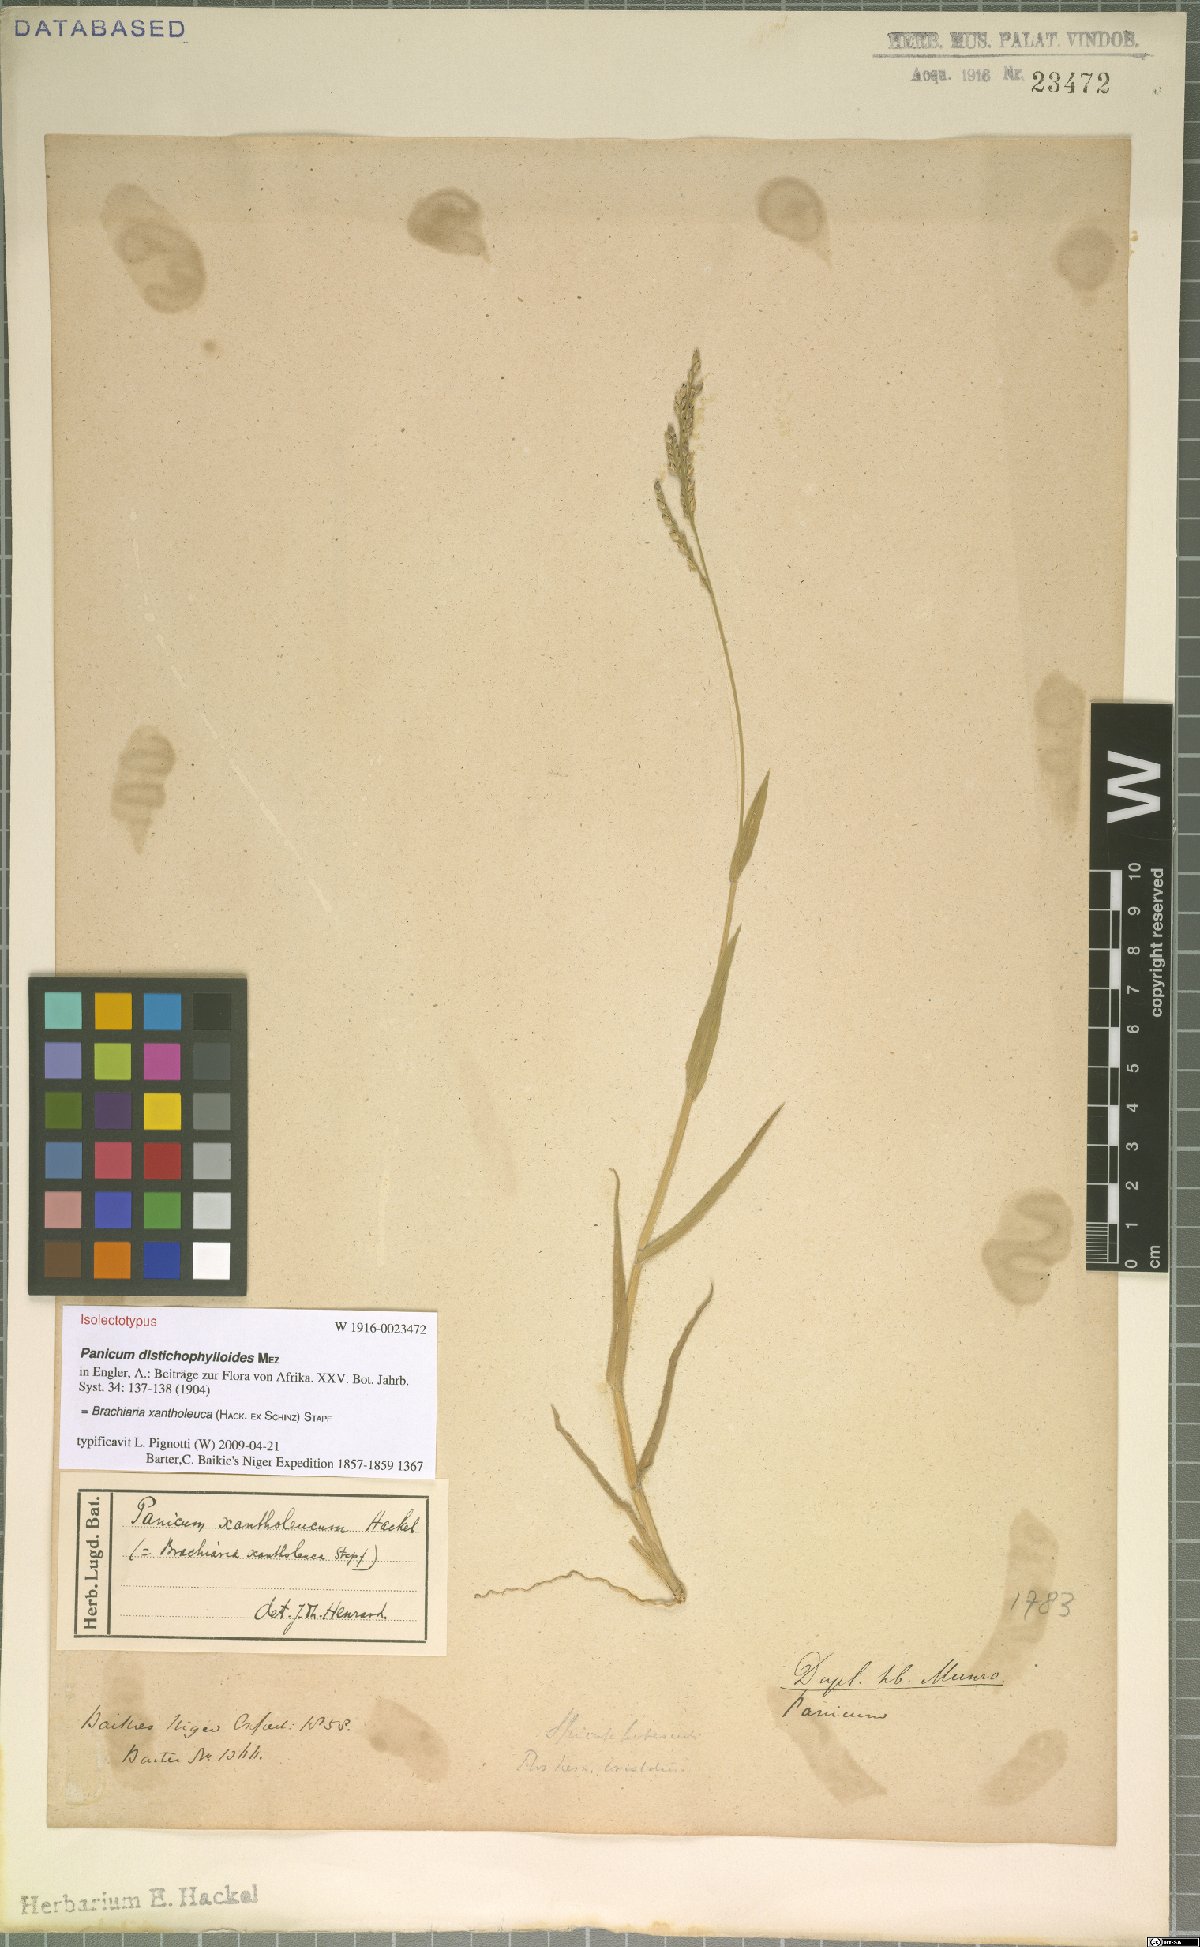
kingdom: Plantae
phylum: Tracheophyta
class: Liliopsida
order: Poales
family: Poaceae
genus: Urochloa
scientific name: Urochloa xantholeuca
